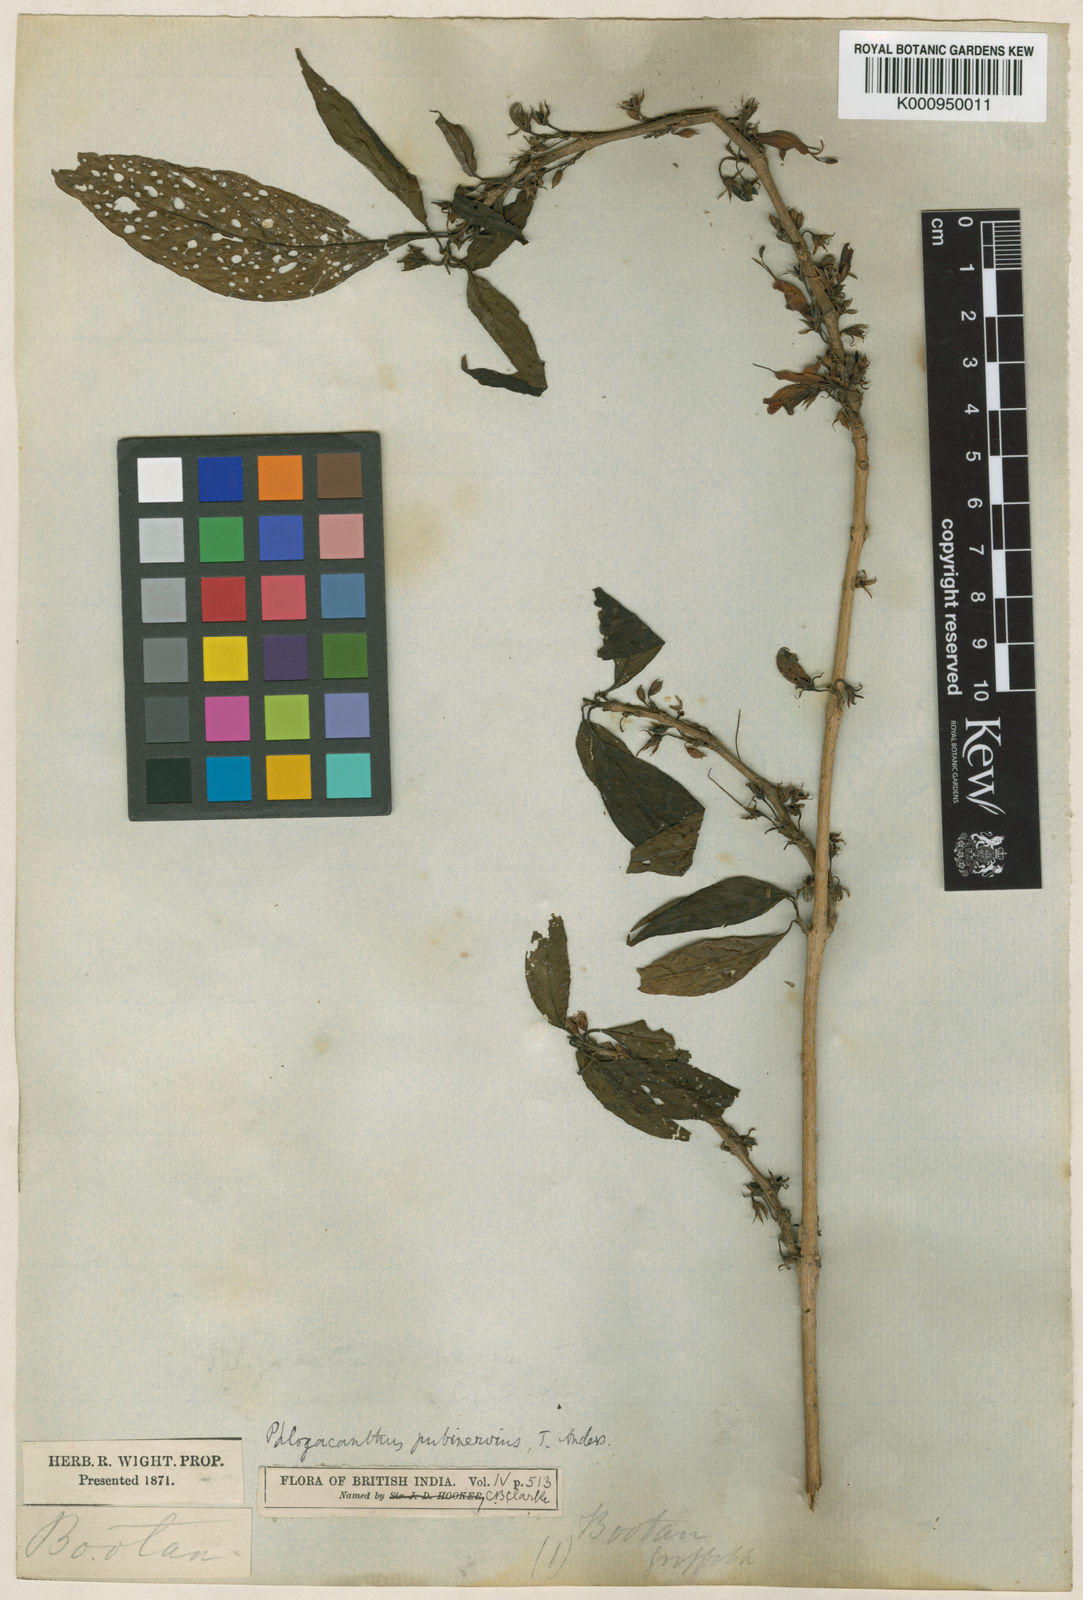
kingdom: Plantae
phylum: Tracheophyta
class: Magnoliopsida
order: Lamiales
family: Acanthaceae
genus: Phlogacanthus
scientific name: Phlogacanthus pubinervius
